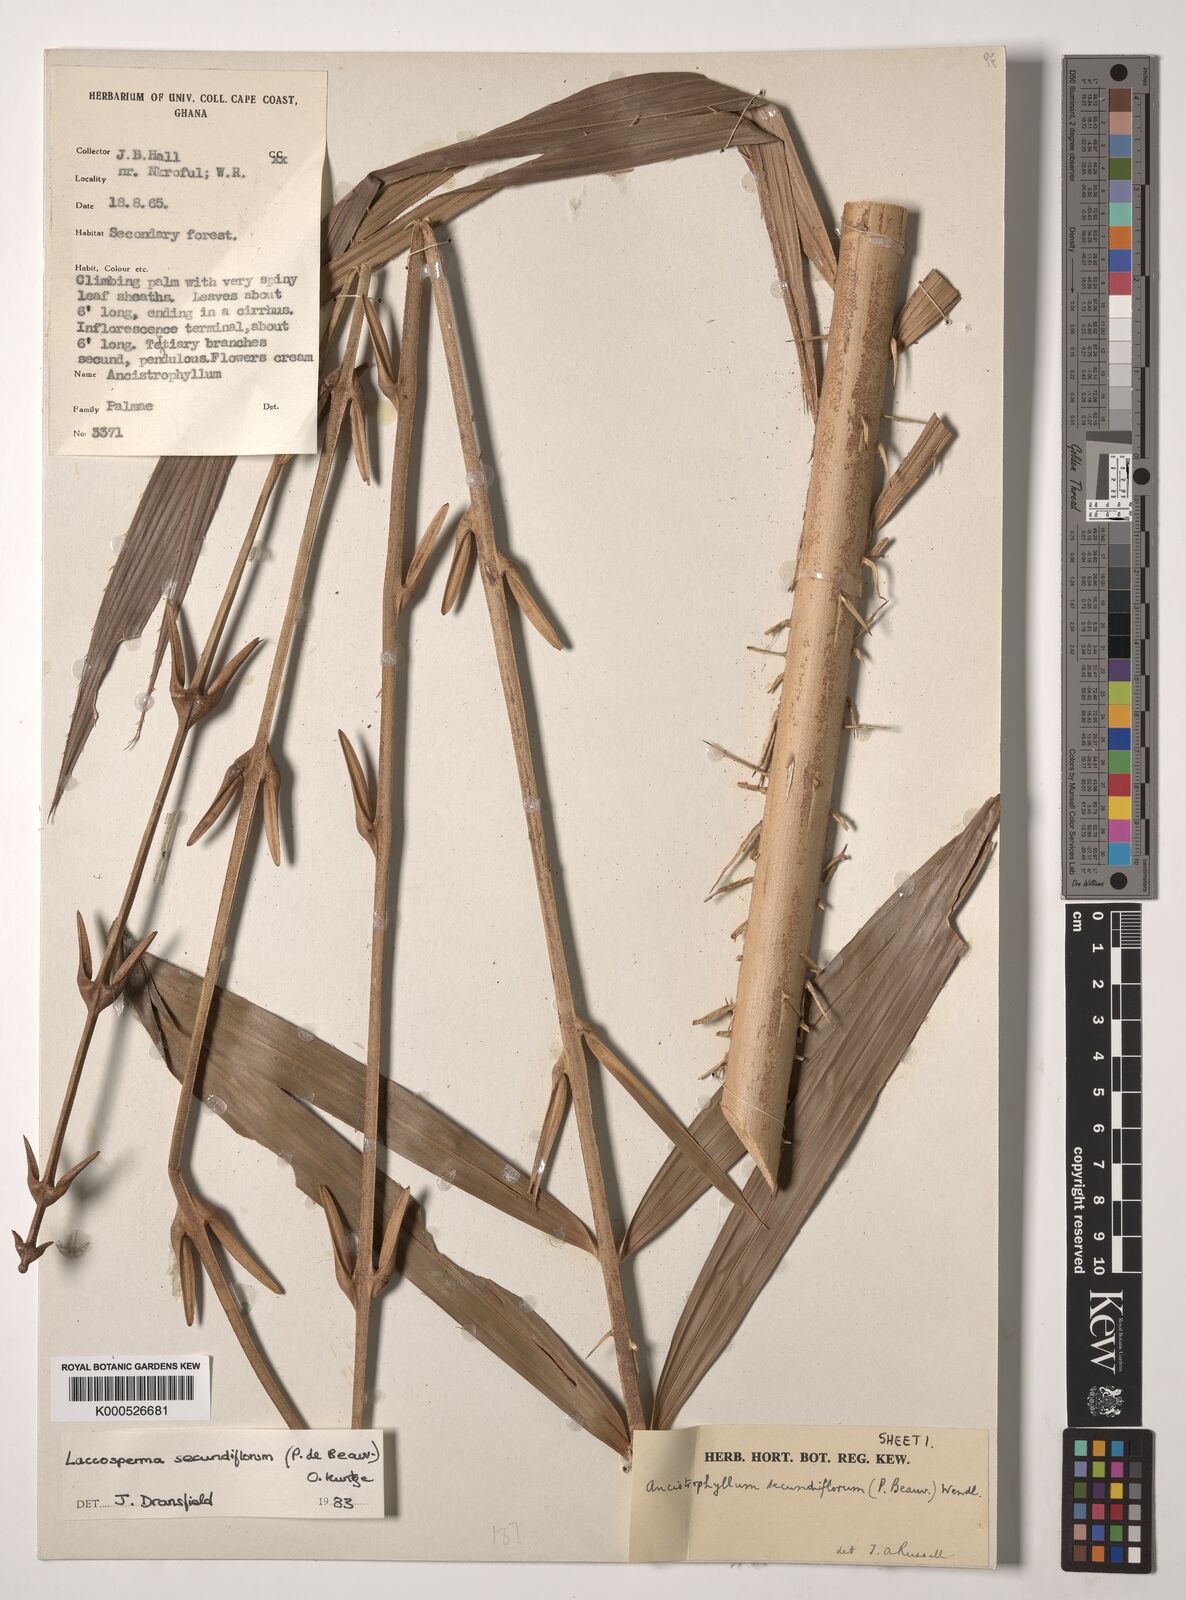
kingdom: Plantae
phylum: Tracheophyta
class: Liliopsida
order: Arecales
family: Arecaceae
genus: Laccosperma
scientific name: Laccosperma secundiflorum
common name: Rattan
